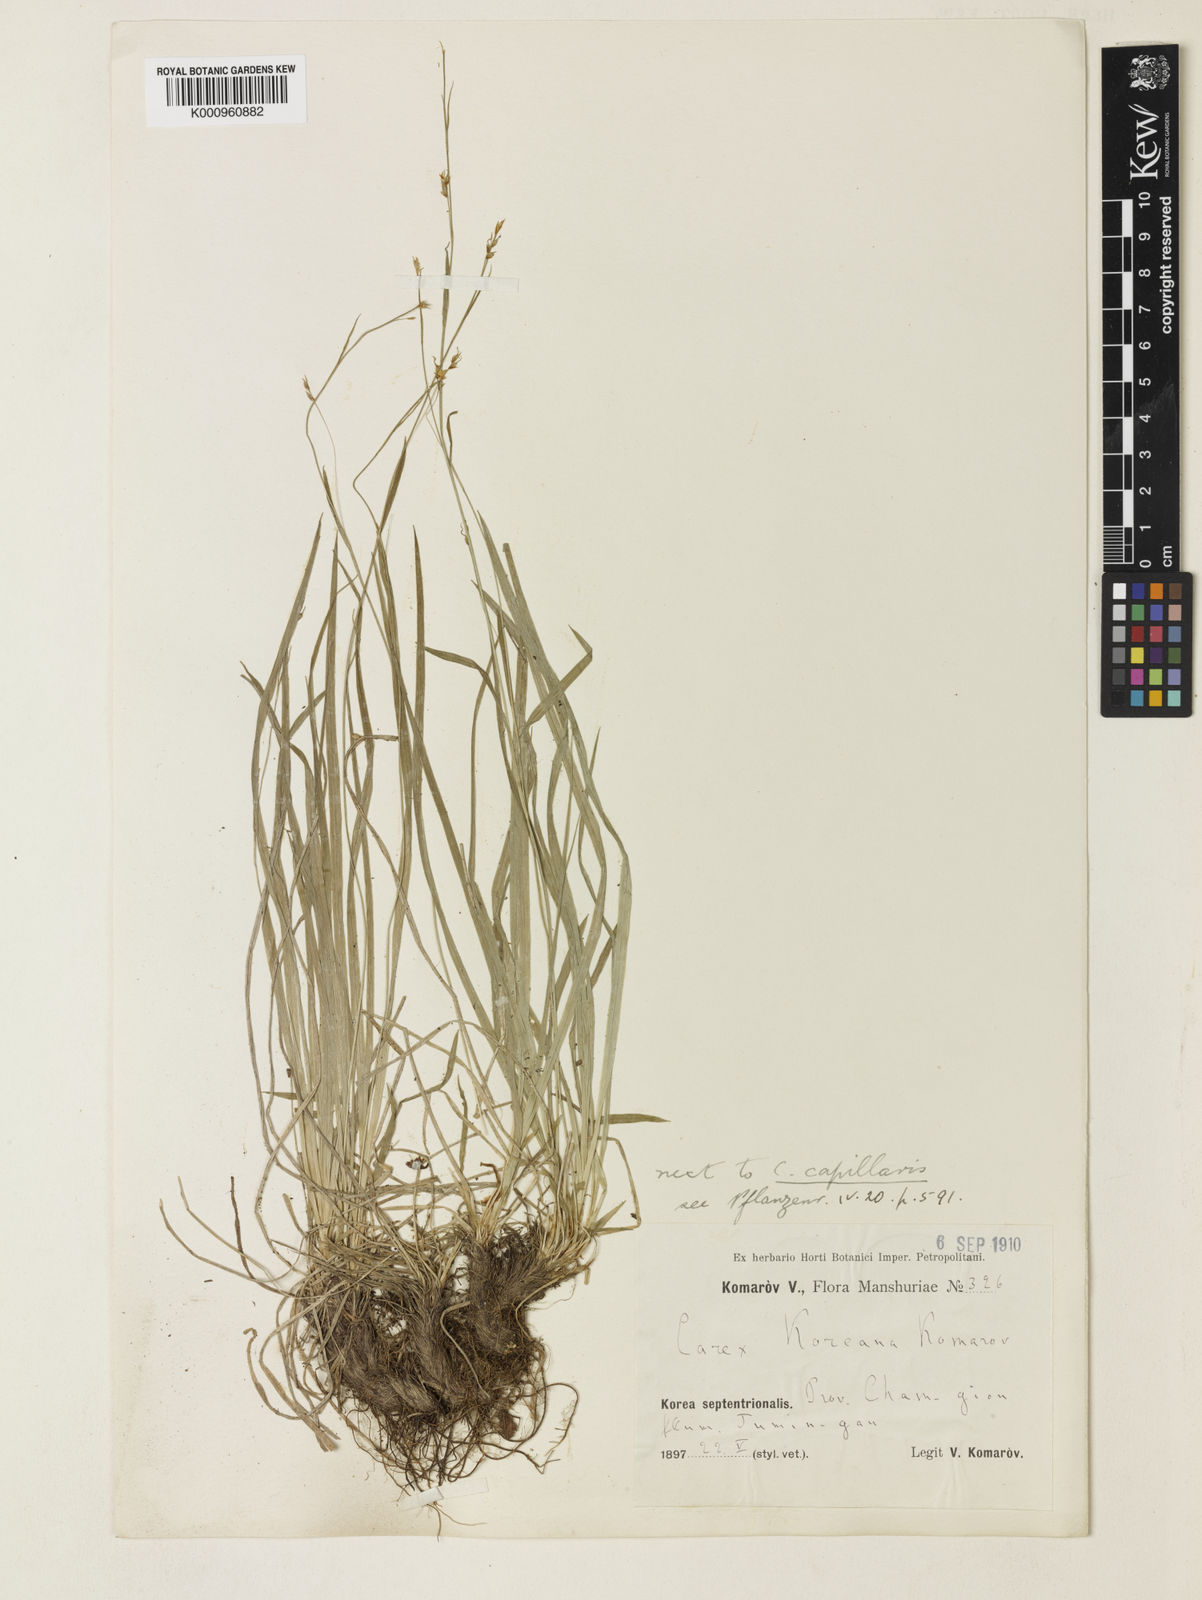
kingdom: Plantae
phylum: Tracheophyta
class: Liliopsida
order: Poales
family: Cyperaceae
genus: Carex
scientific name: Carex tenuiformis
